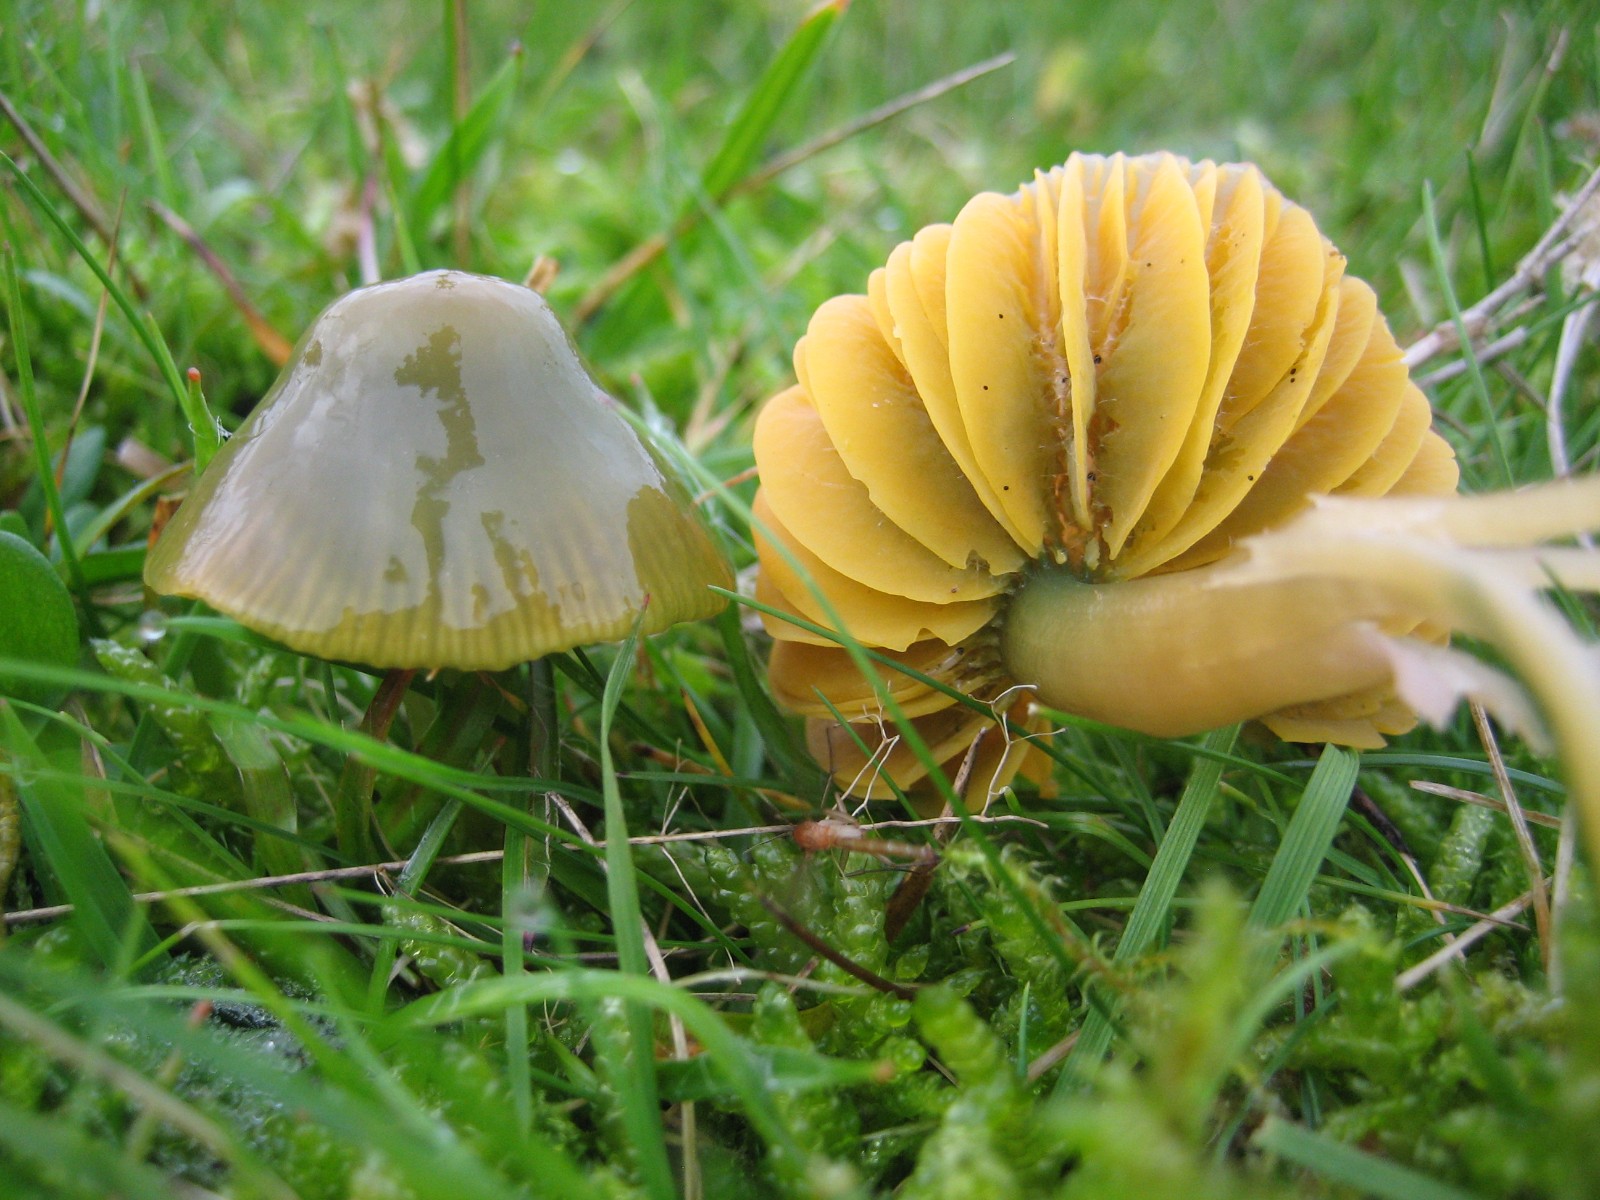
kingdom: Fungi
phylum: Basidiomycota
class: Agaricomycetes
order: Agaricales
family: Hygrophoraceae
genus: Gliophorus
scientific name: Gliophorus psittacinus
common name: papegøje-vokshat
